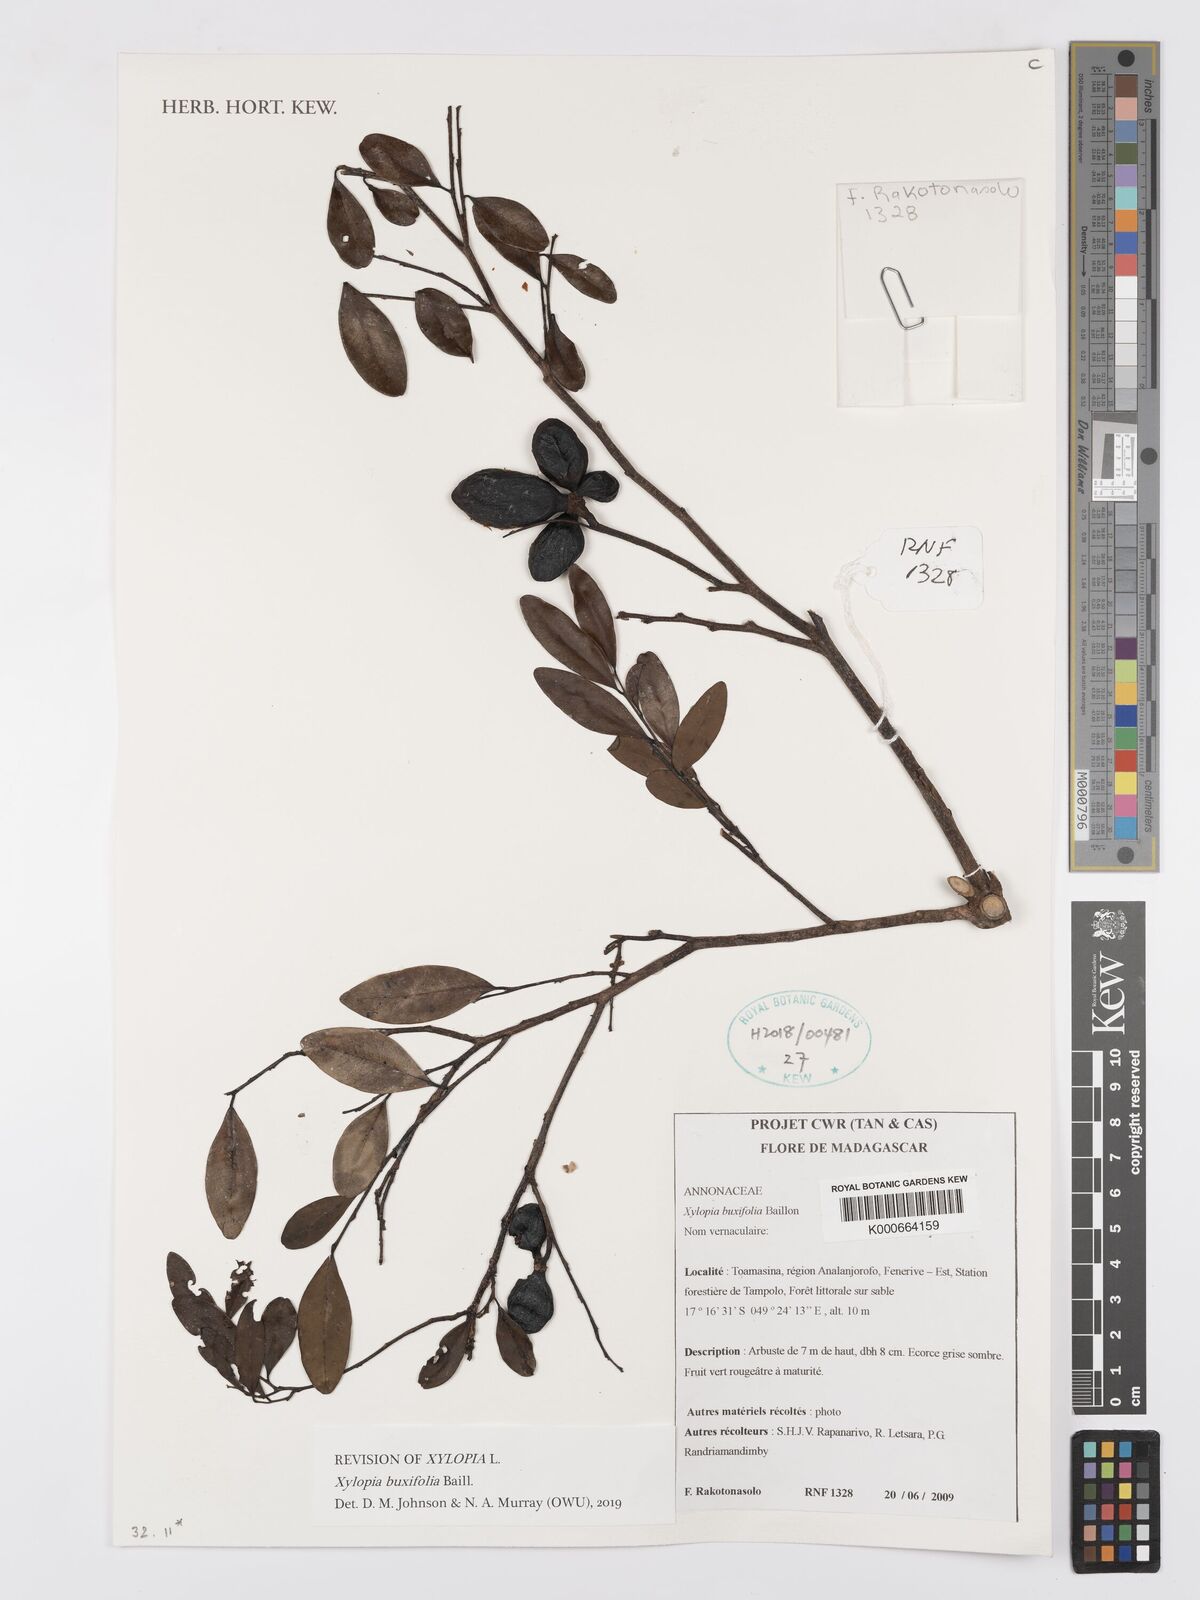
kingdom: Plantae
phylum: Tracheophyta
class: Magnoliopsida
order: Magnoliales
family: Annonaceae
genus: Xylopia
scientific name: Xylopia buxifolia
